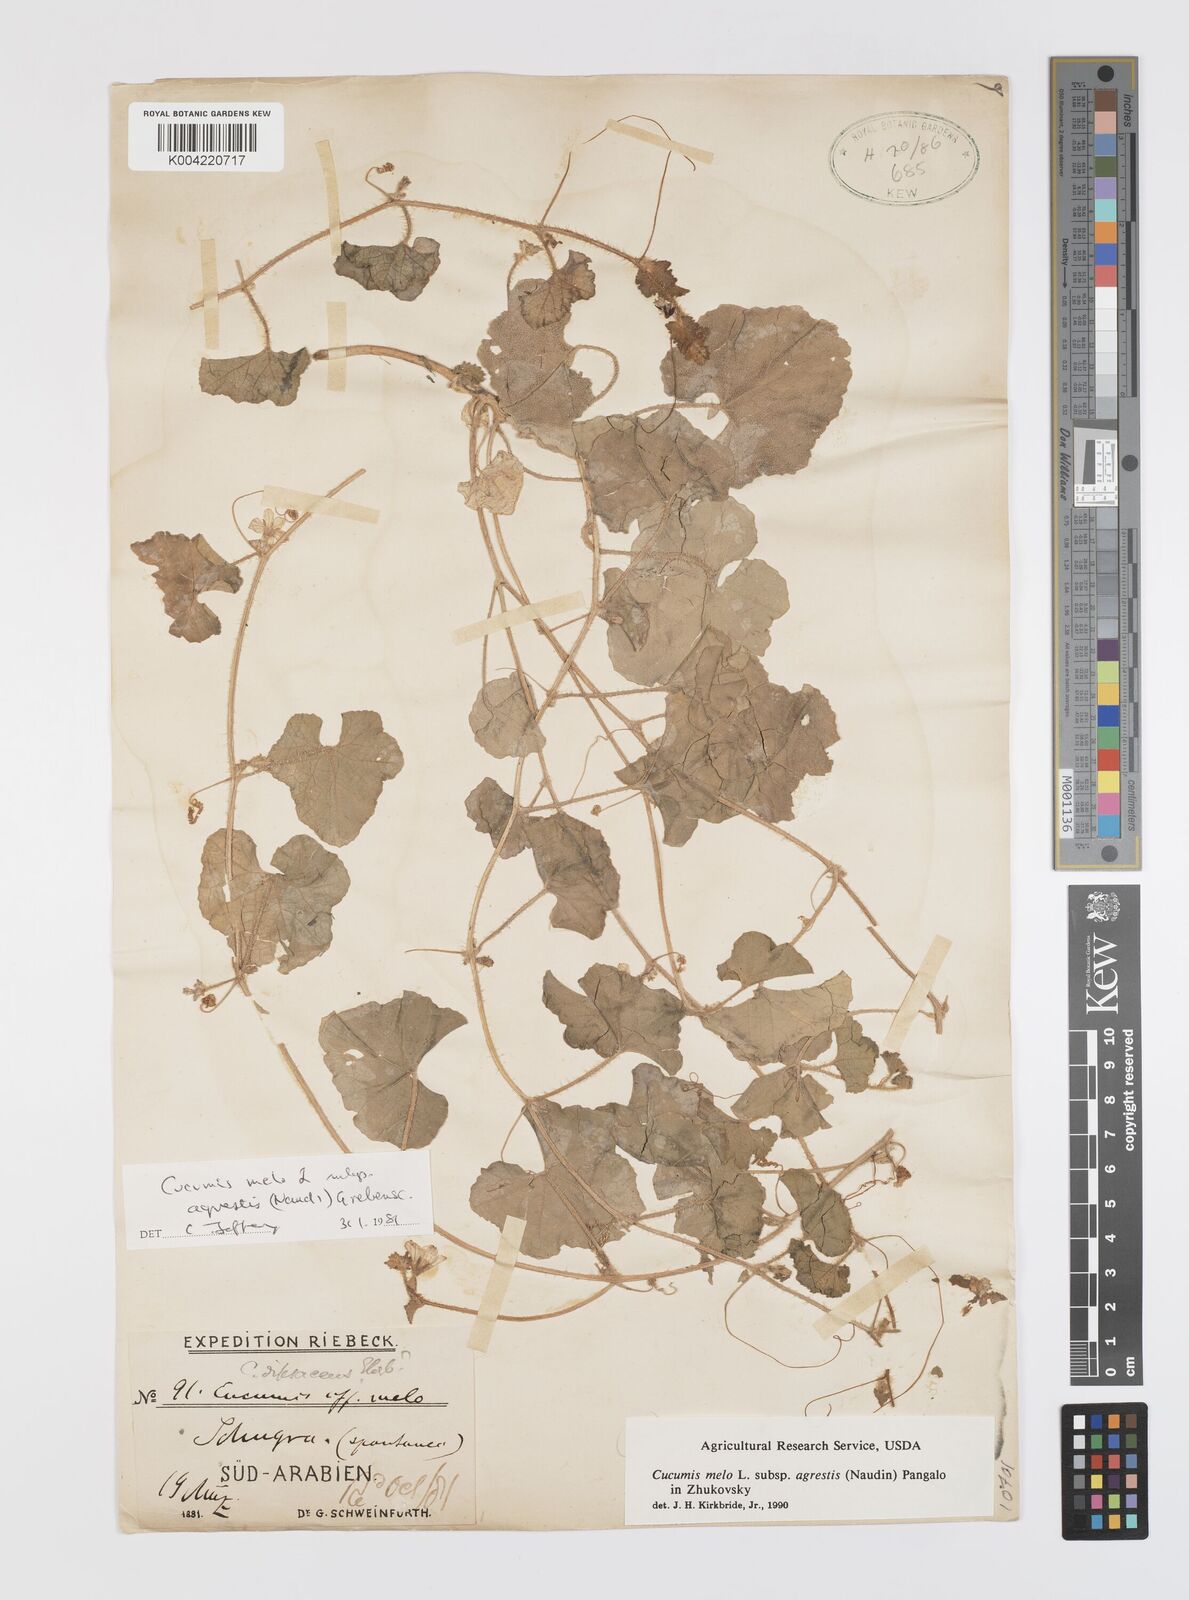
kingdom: Plantae
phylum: Tracheophyta
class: Magnoliopsida
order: Cucurbitales
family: Cucurbitaceae
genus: Cucumis
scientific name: Cucumis melo
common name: Melon
